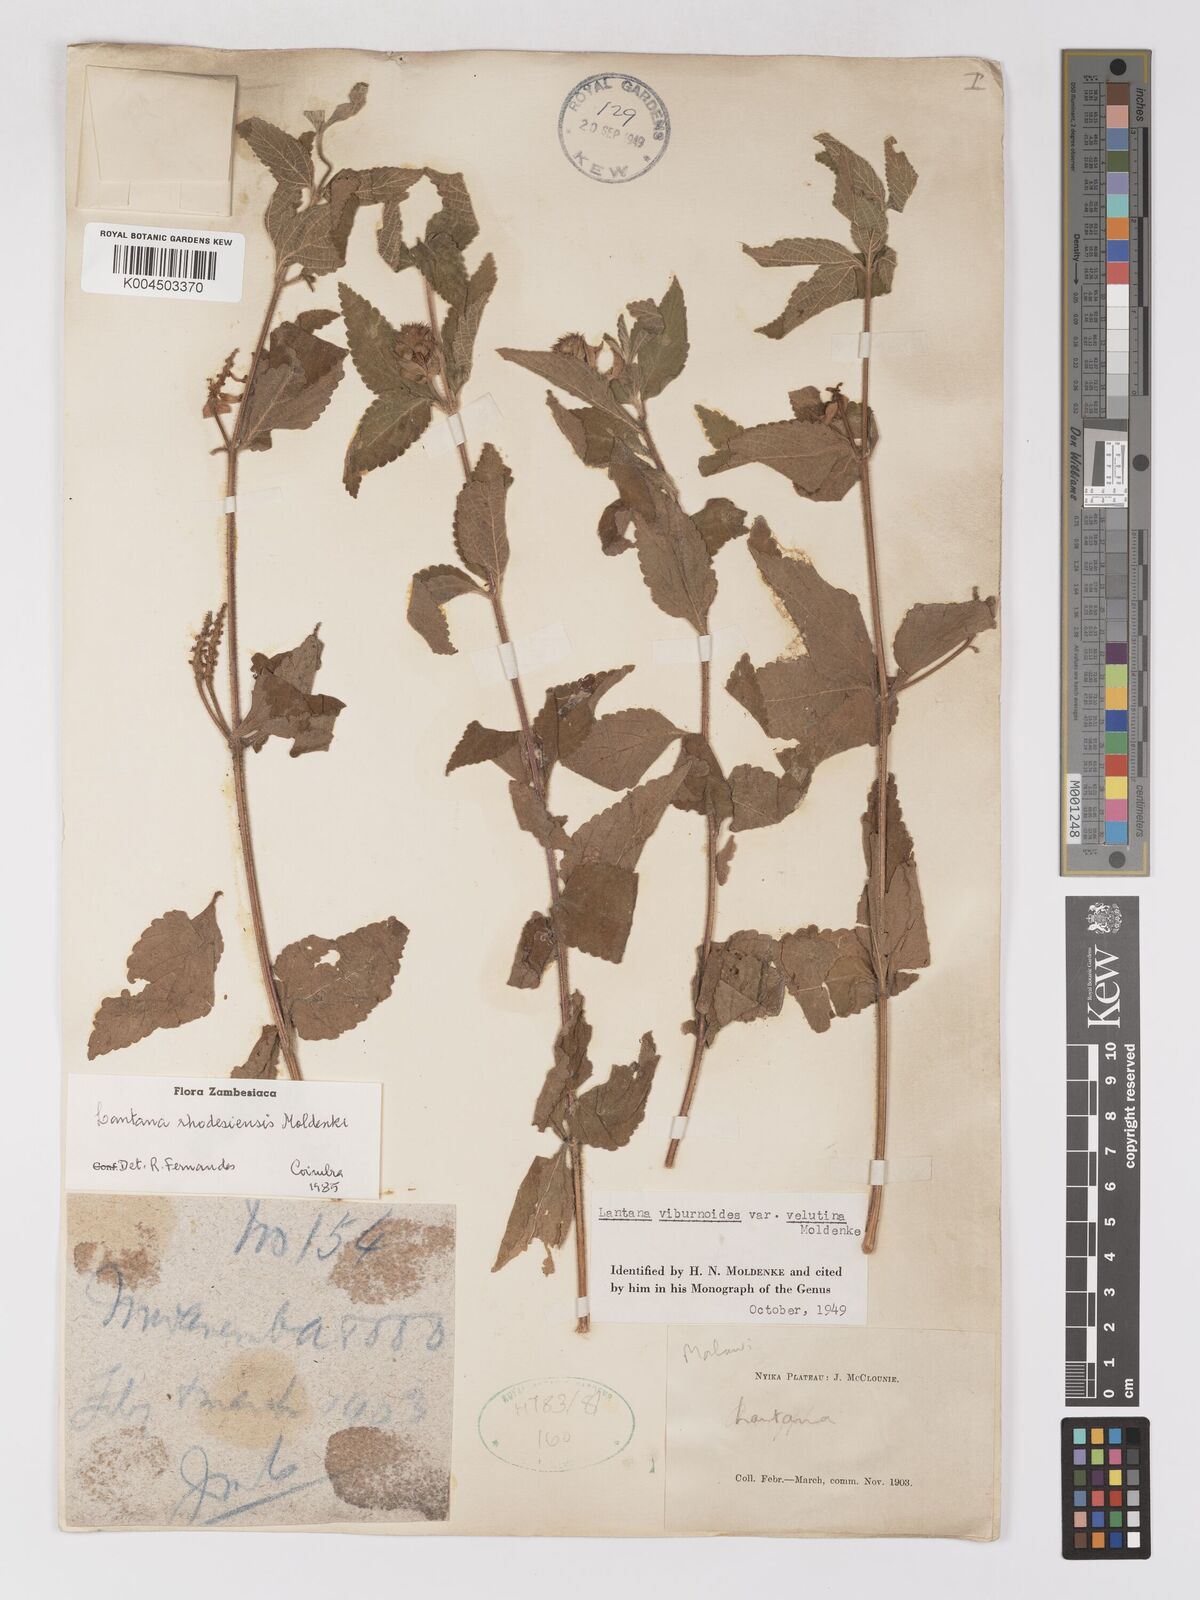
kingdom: Plantae
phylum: Tracheophyta
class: Magnoliopsida
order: Lamiales
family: Verbenaceae
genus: Lantana
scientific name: Lantana ukambensis
